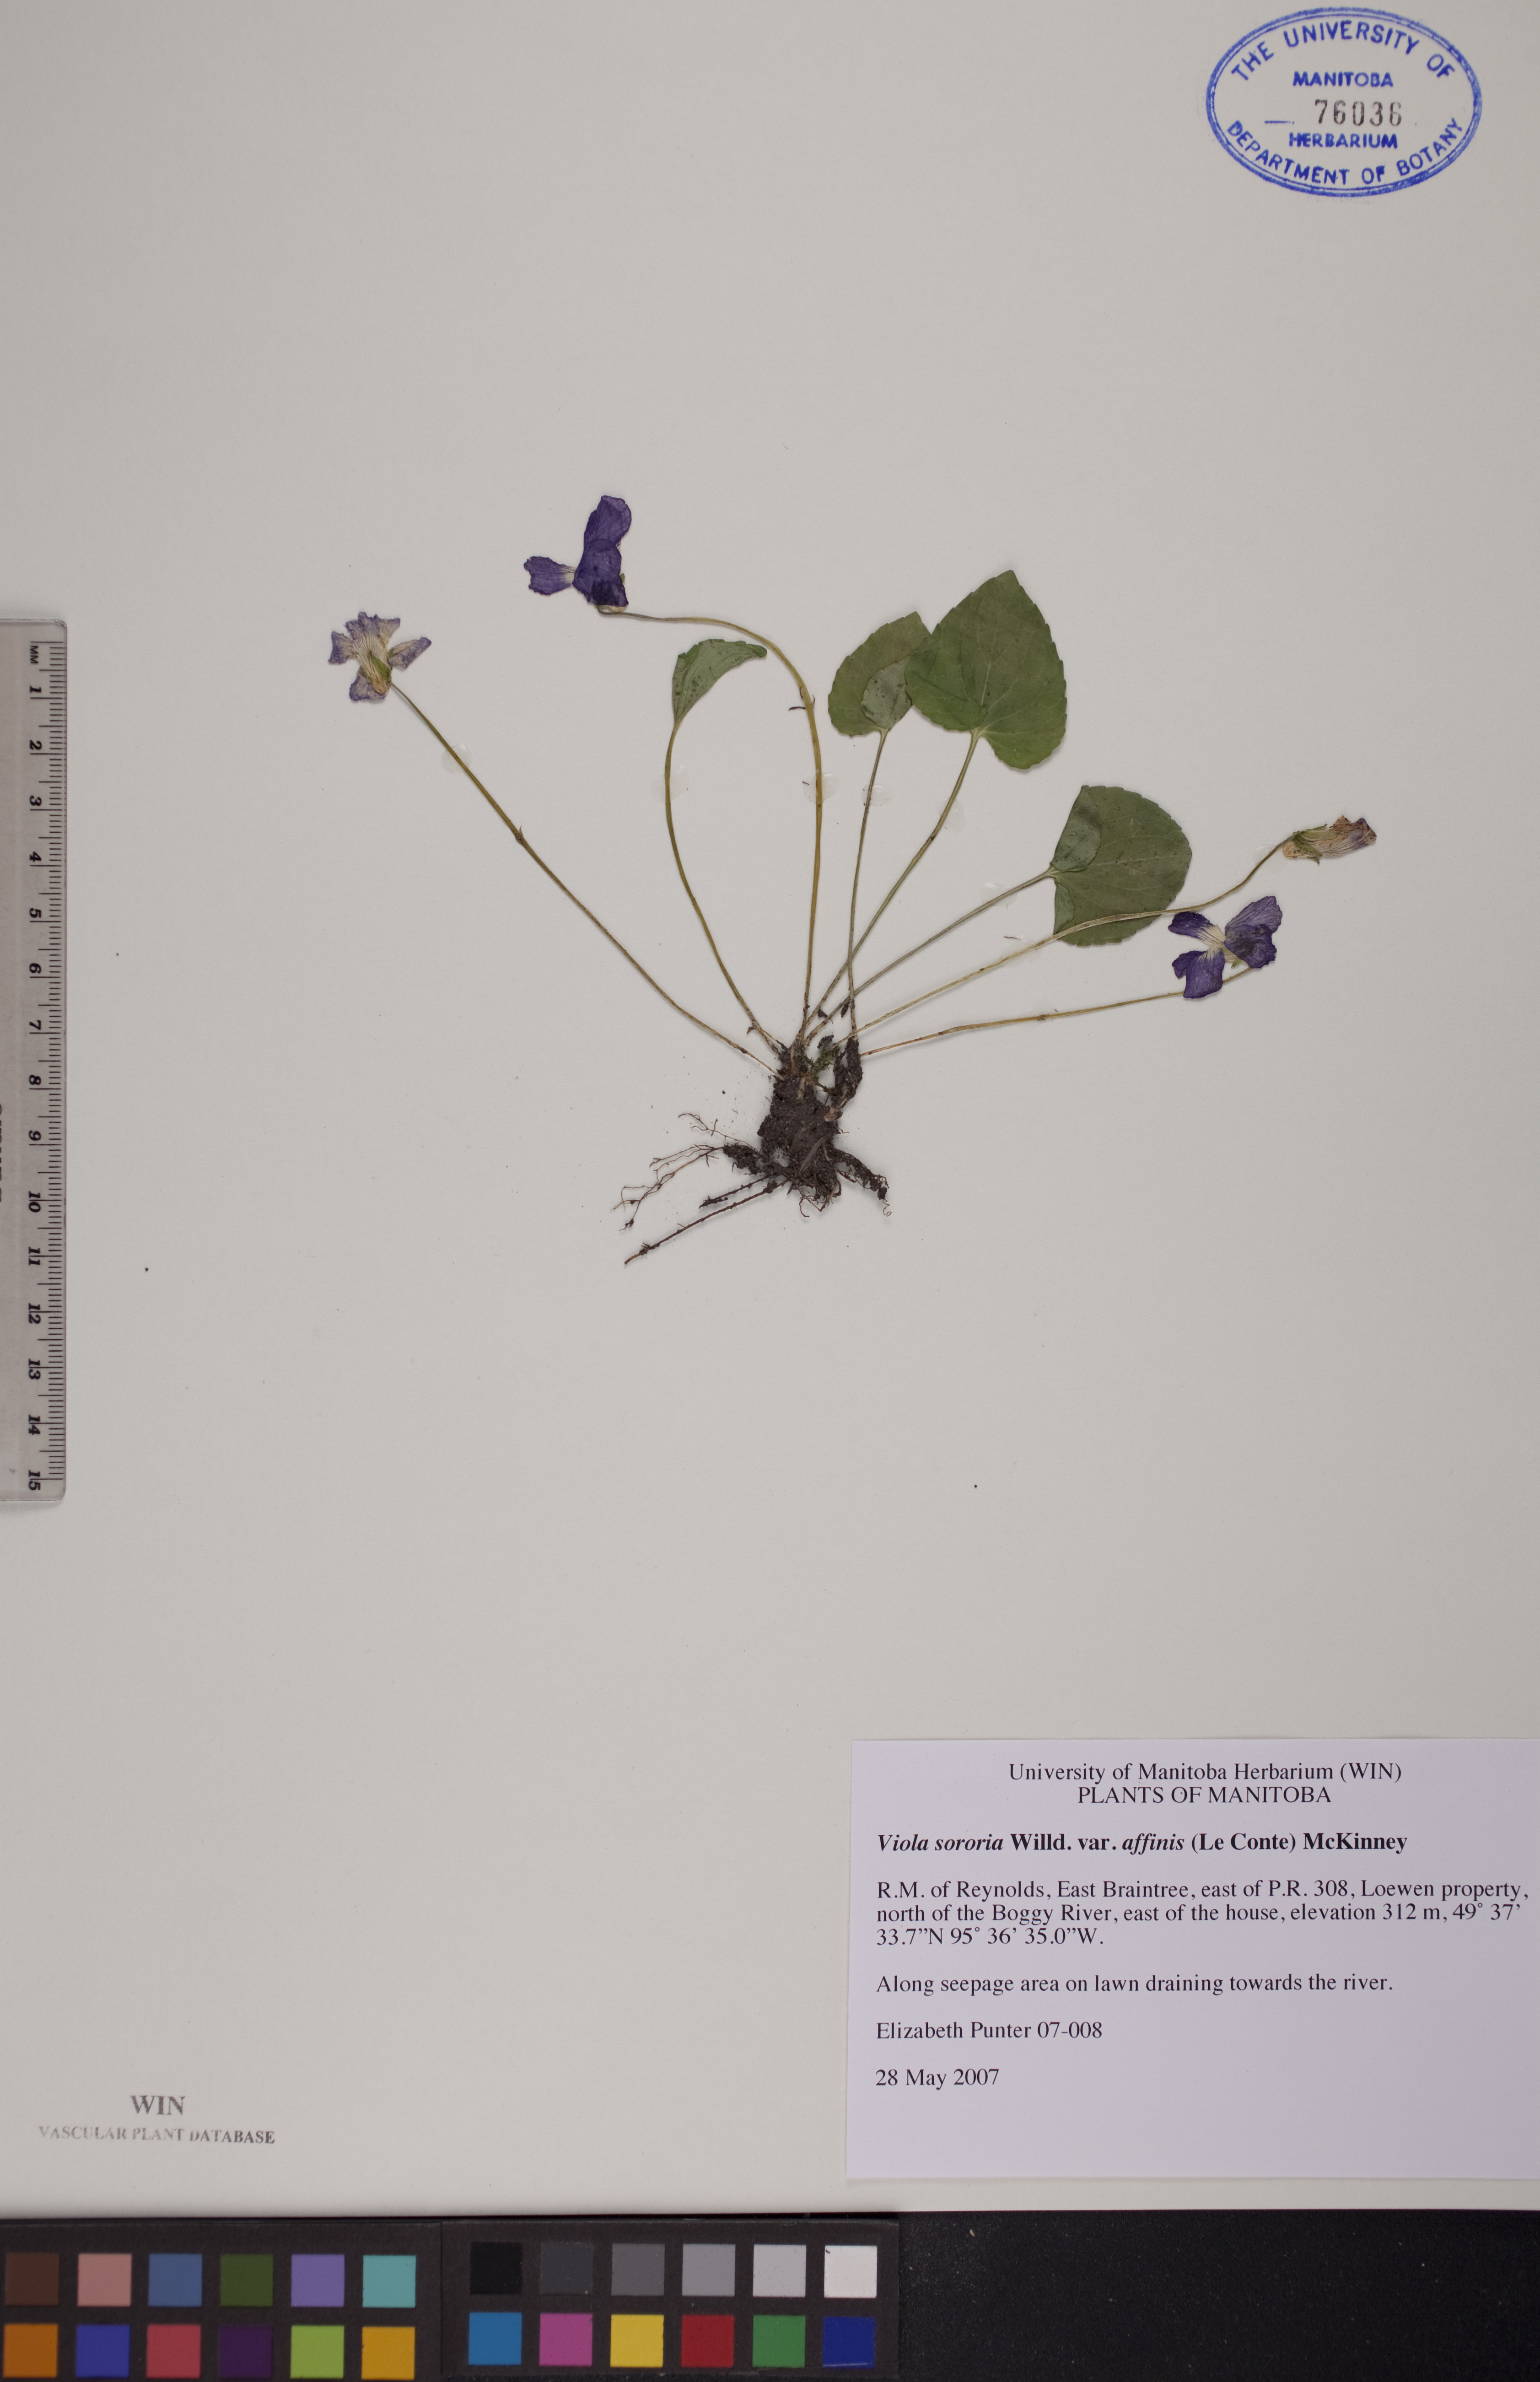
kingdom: Plantae
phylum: Tracheophyta
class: Magnoliopsida
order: Malpighiales
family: Violaceae
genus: Viola
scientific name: Viola affinis
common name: Leconte's violet
